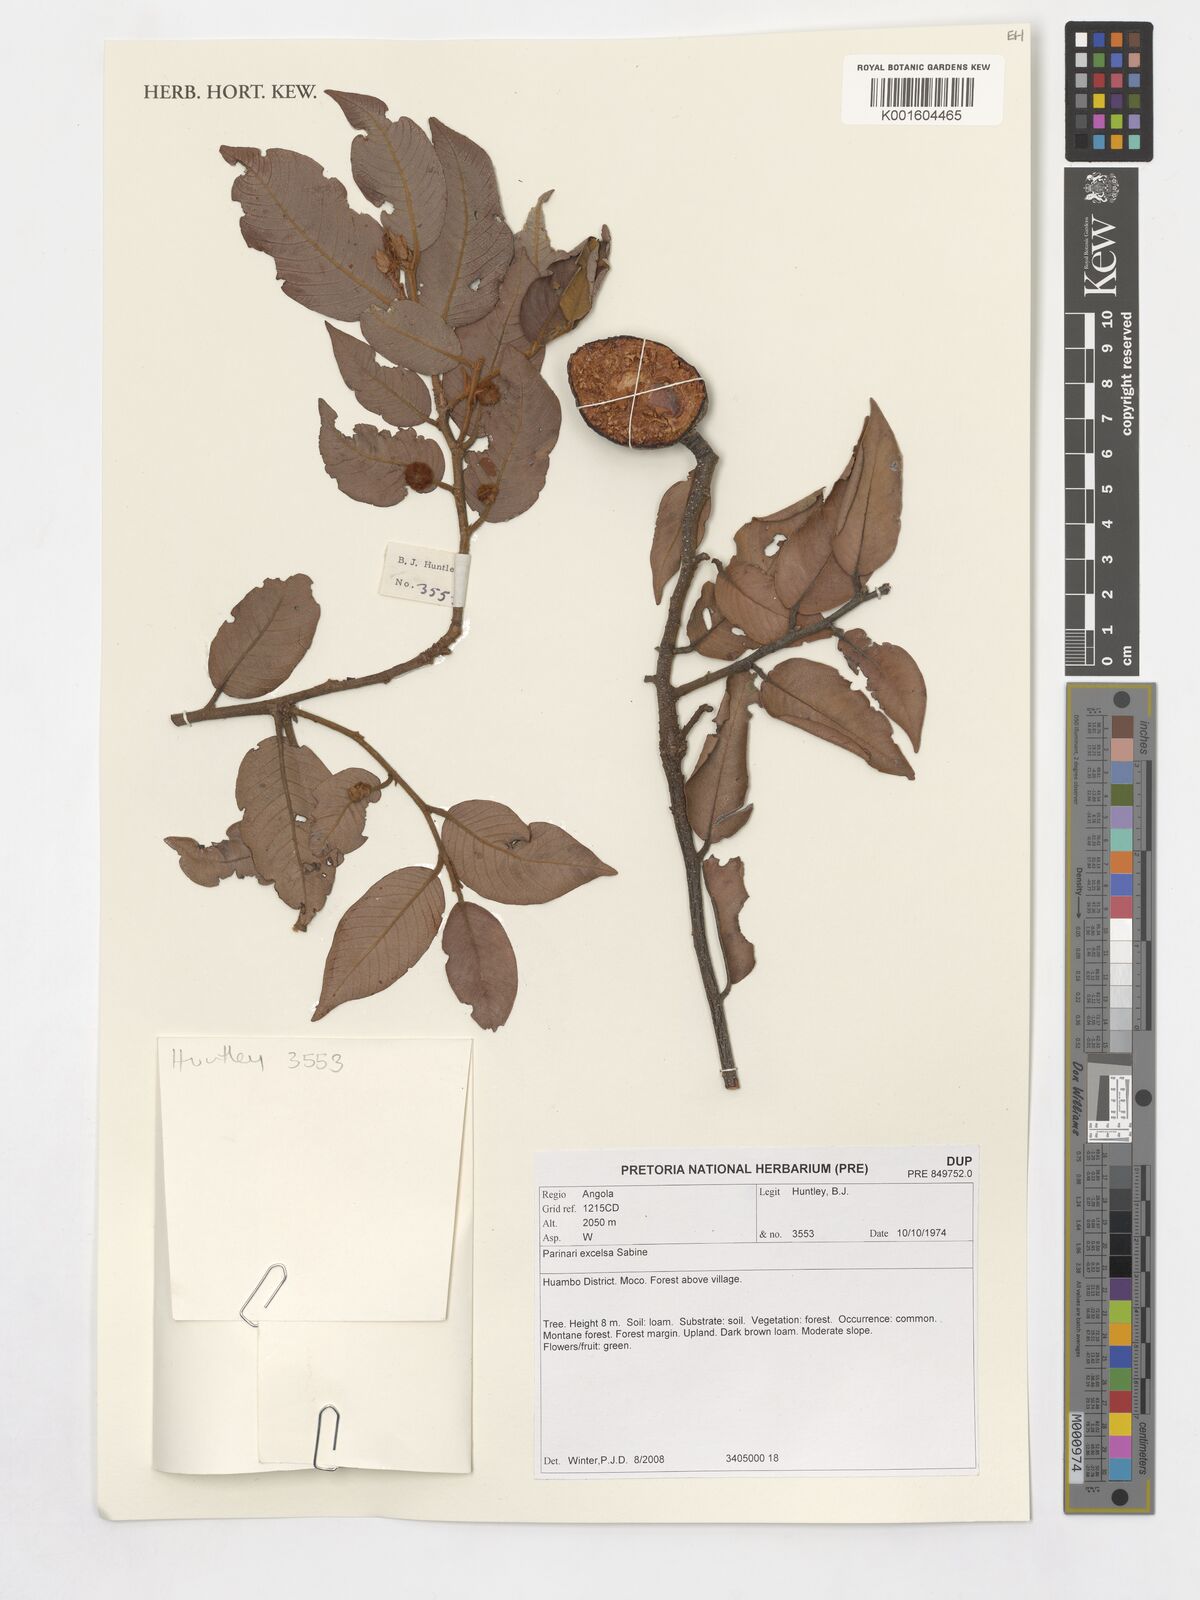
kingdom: Plantae
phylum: Tracheophyta
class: Magnoliopsida
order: Malpighiales
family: Chrysobalanaceae
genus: Parinari
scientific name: Parinari excelsa
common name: Guinea-plum
